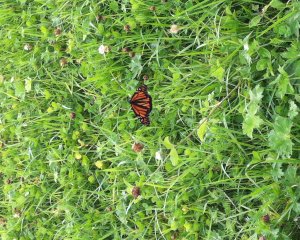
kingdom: Animalia
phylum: Arthropoda
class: Insecta
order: Lepidoptera
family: Nymphalidae
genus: Danaus
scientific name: Danaus plexippus
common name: Monarch
